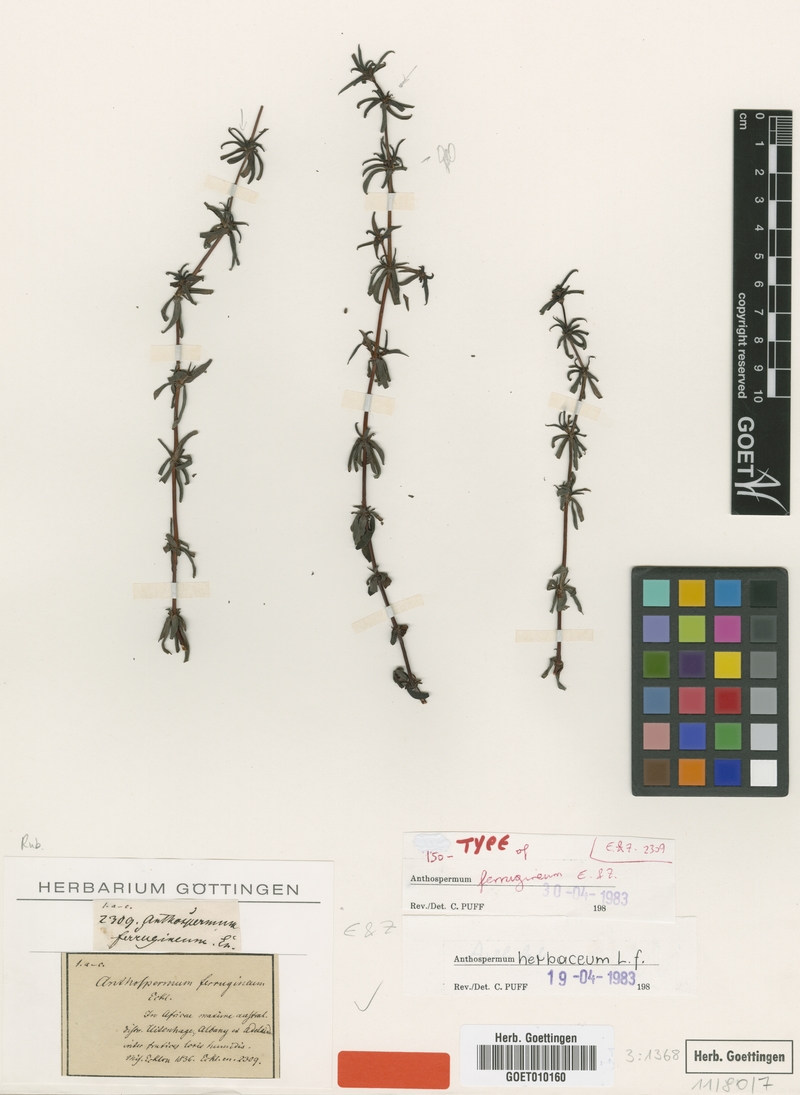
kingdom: Plantae
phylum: Tracheophyta
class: Magnoliopsida
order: Gentianales
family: Rubiaceae
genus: Anthospermum
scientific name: Anthospermum herbaceum
